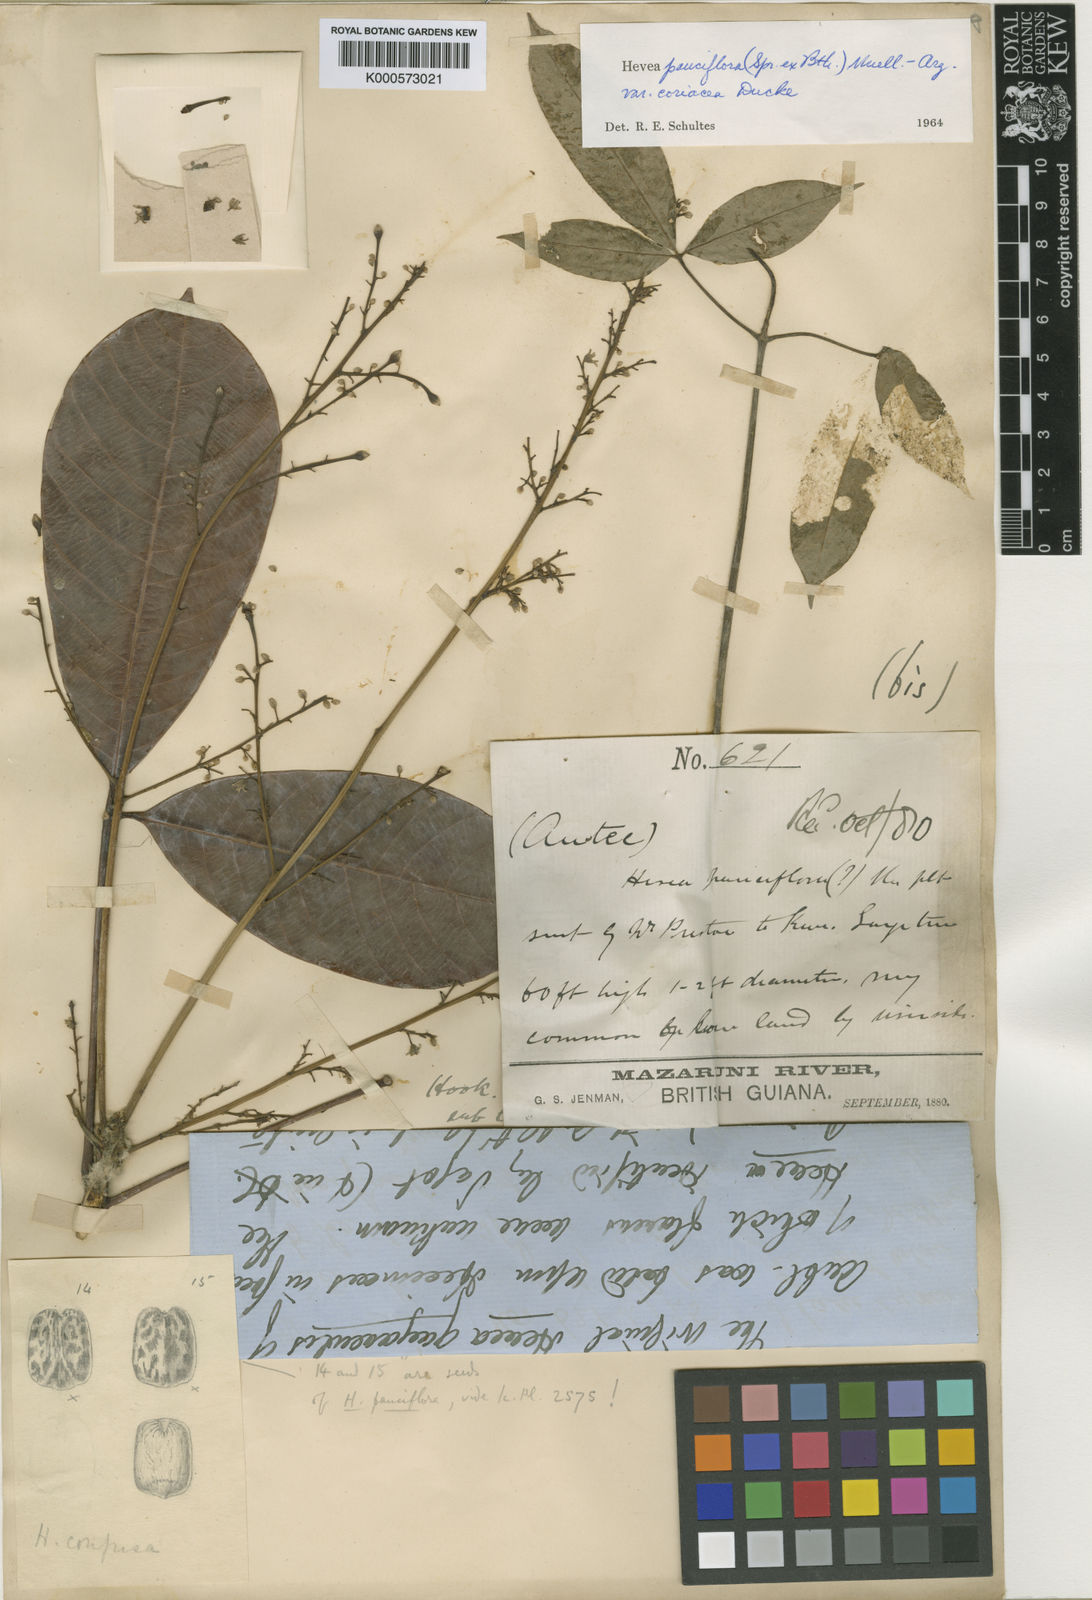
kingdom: Plantae
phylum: Tracheophyta
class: Magnoliopsida
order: Malpighiales
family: Euphorbiaceae
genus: Hevea
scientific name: Hevea
